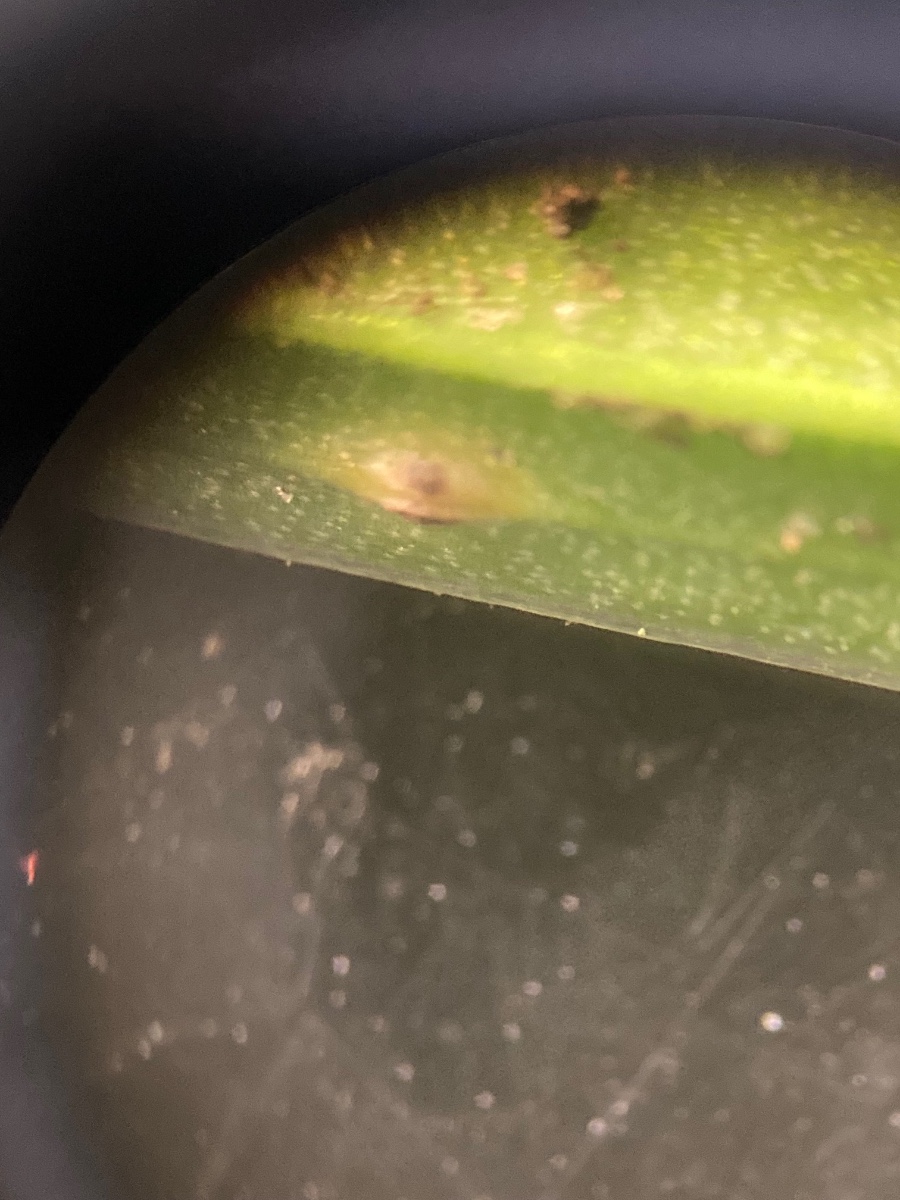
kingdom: Fungi
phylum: Basidiomycota
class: Pucciniomycetes
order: Pucciniales
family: Pucciniaceae
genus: Uromyces
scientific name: Uromyces gageae
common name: Yellow star-of-bethlehem rust
